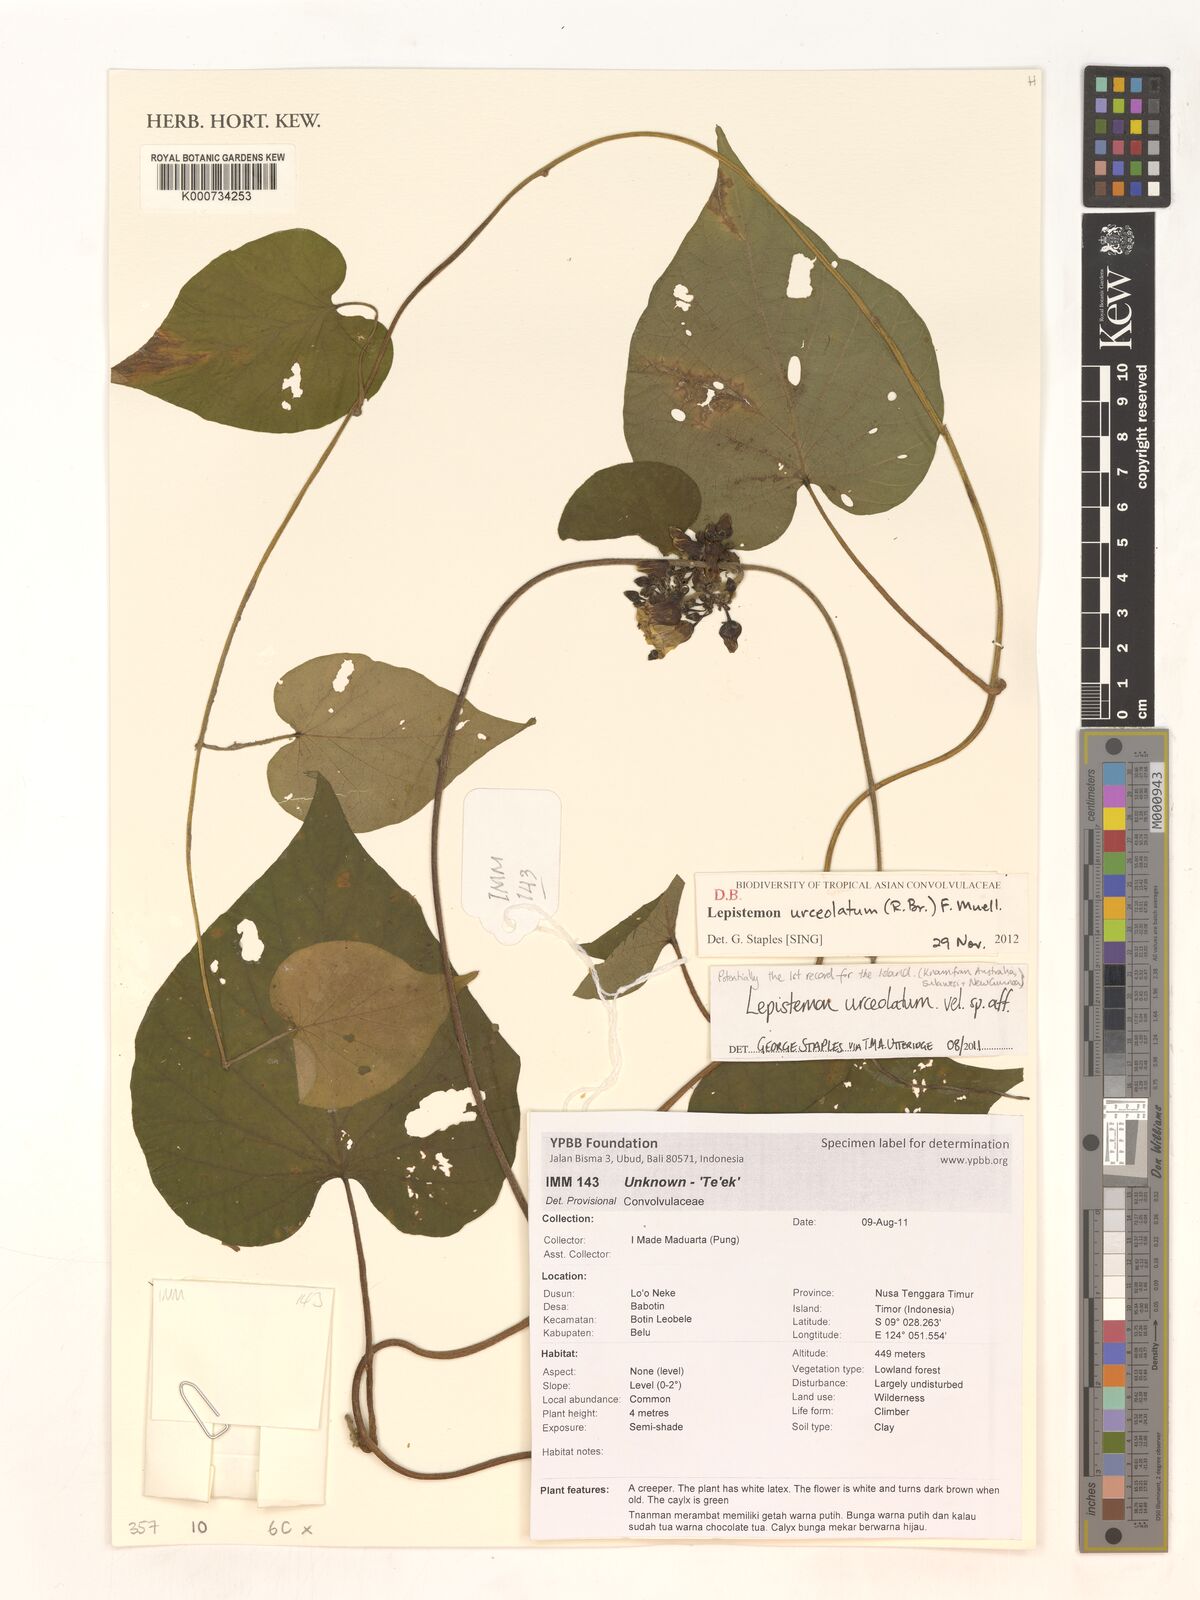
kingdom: Plantae
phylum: Tracheophyta
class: Magnoliopsida
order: Solanales
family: Convolvulaceae
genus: Lepistemon
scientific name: Lepistemon urceolatus
